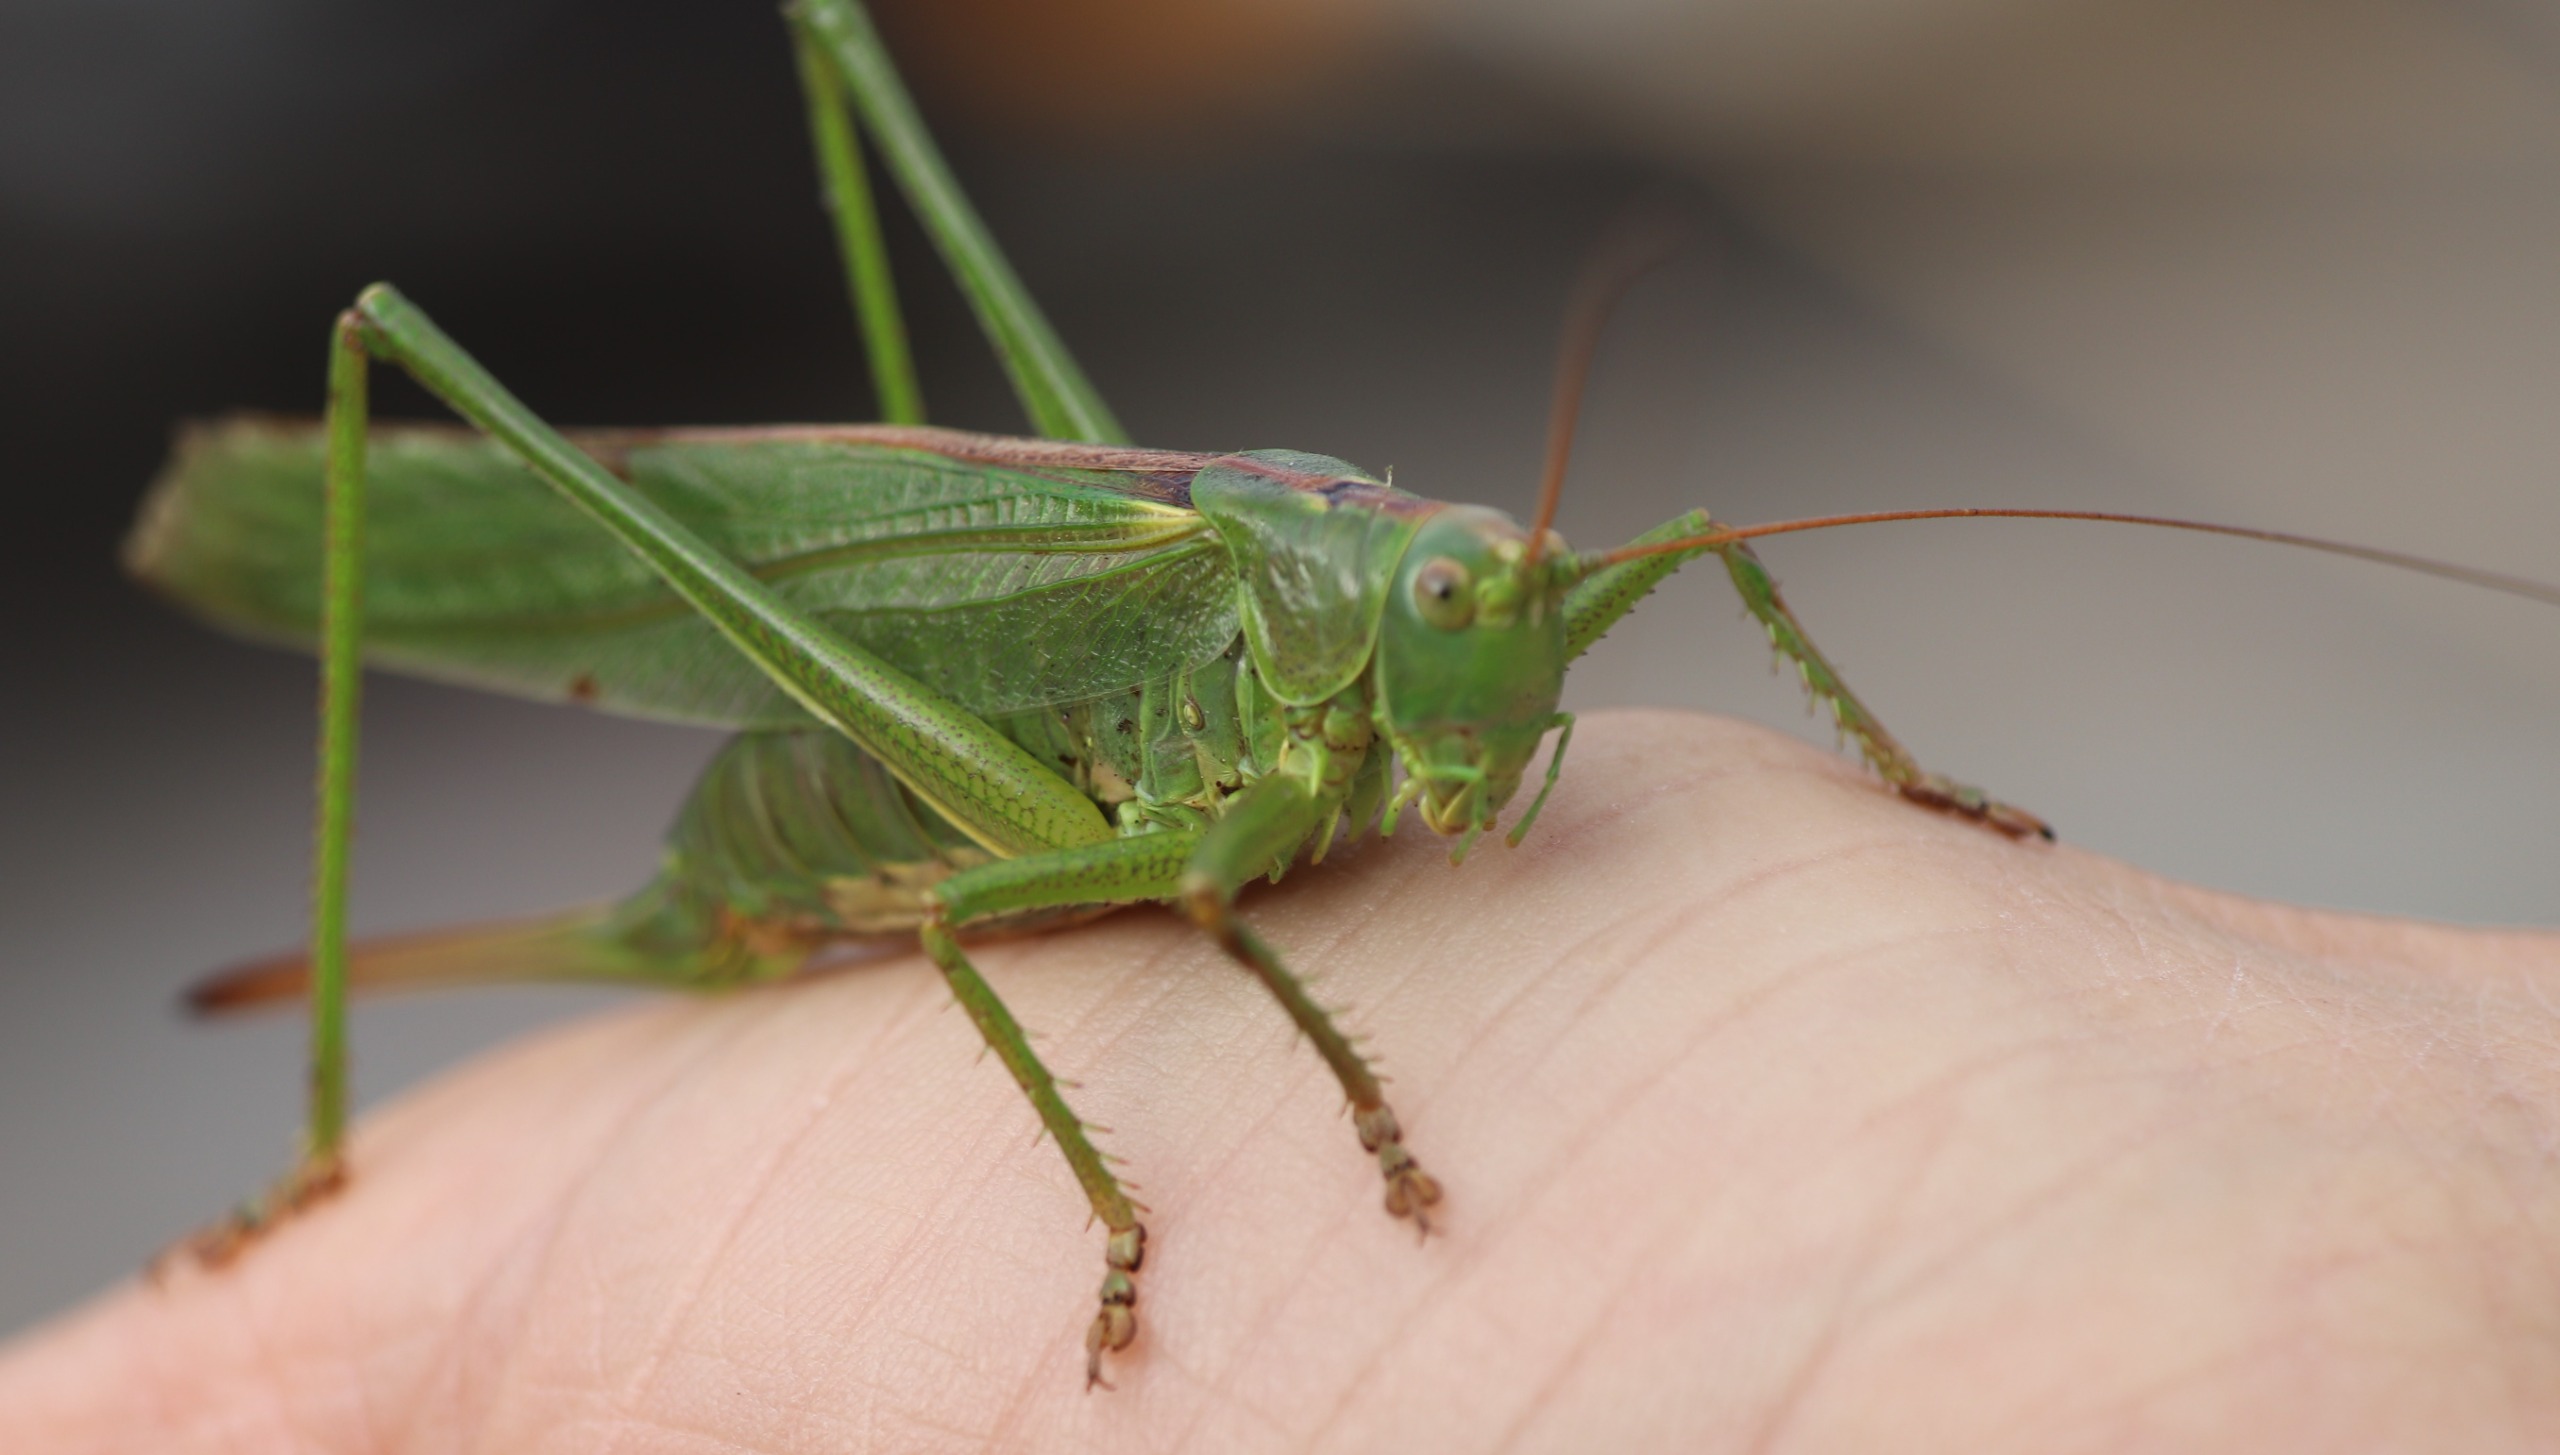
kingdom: Animalia
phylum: Arthropoda
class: Insecta
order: Orthoptera
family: Tettigoniidae
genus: Tettigonia
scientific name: Tettigonia viridissima
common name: Stor grøn løvgræshoppe
